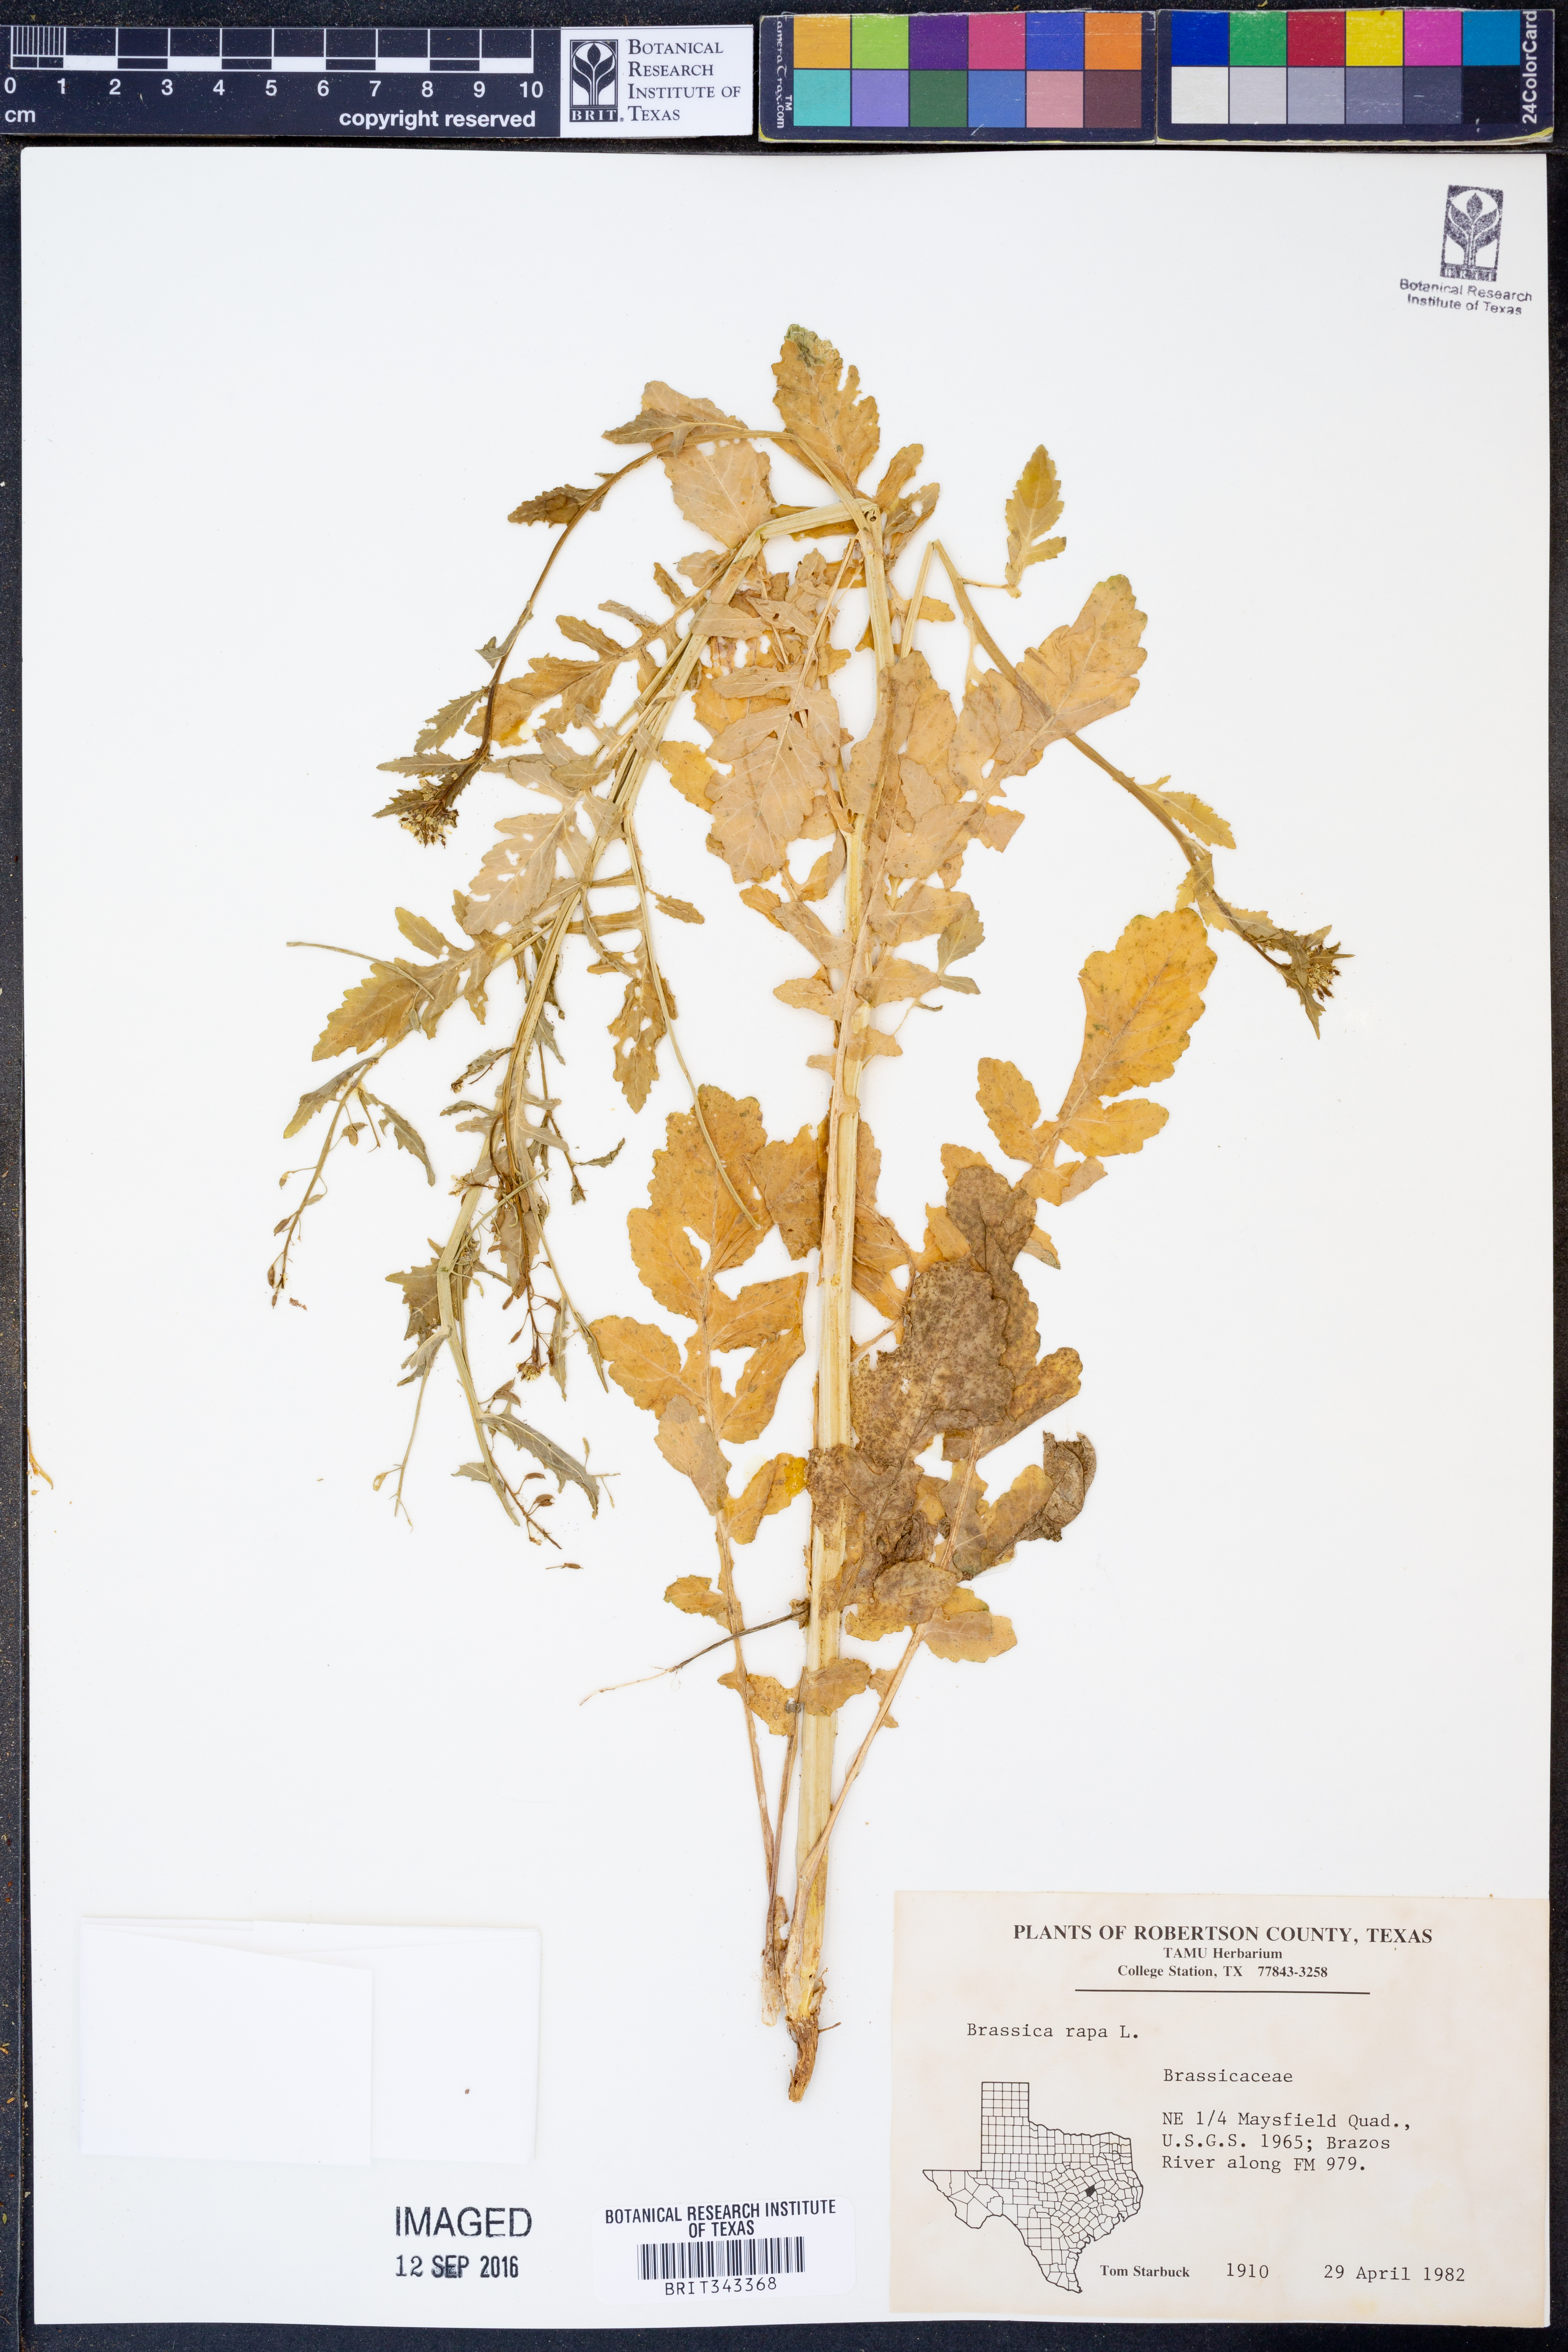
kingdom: Plantae
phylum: Tracheophyta
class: Magnoliopsida
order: Brassicales
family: Brassicaceae
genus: Brassica
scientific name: Brassica rapa
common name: Field mustard
